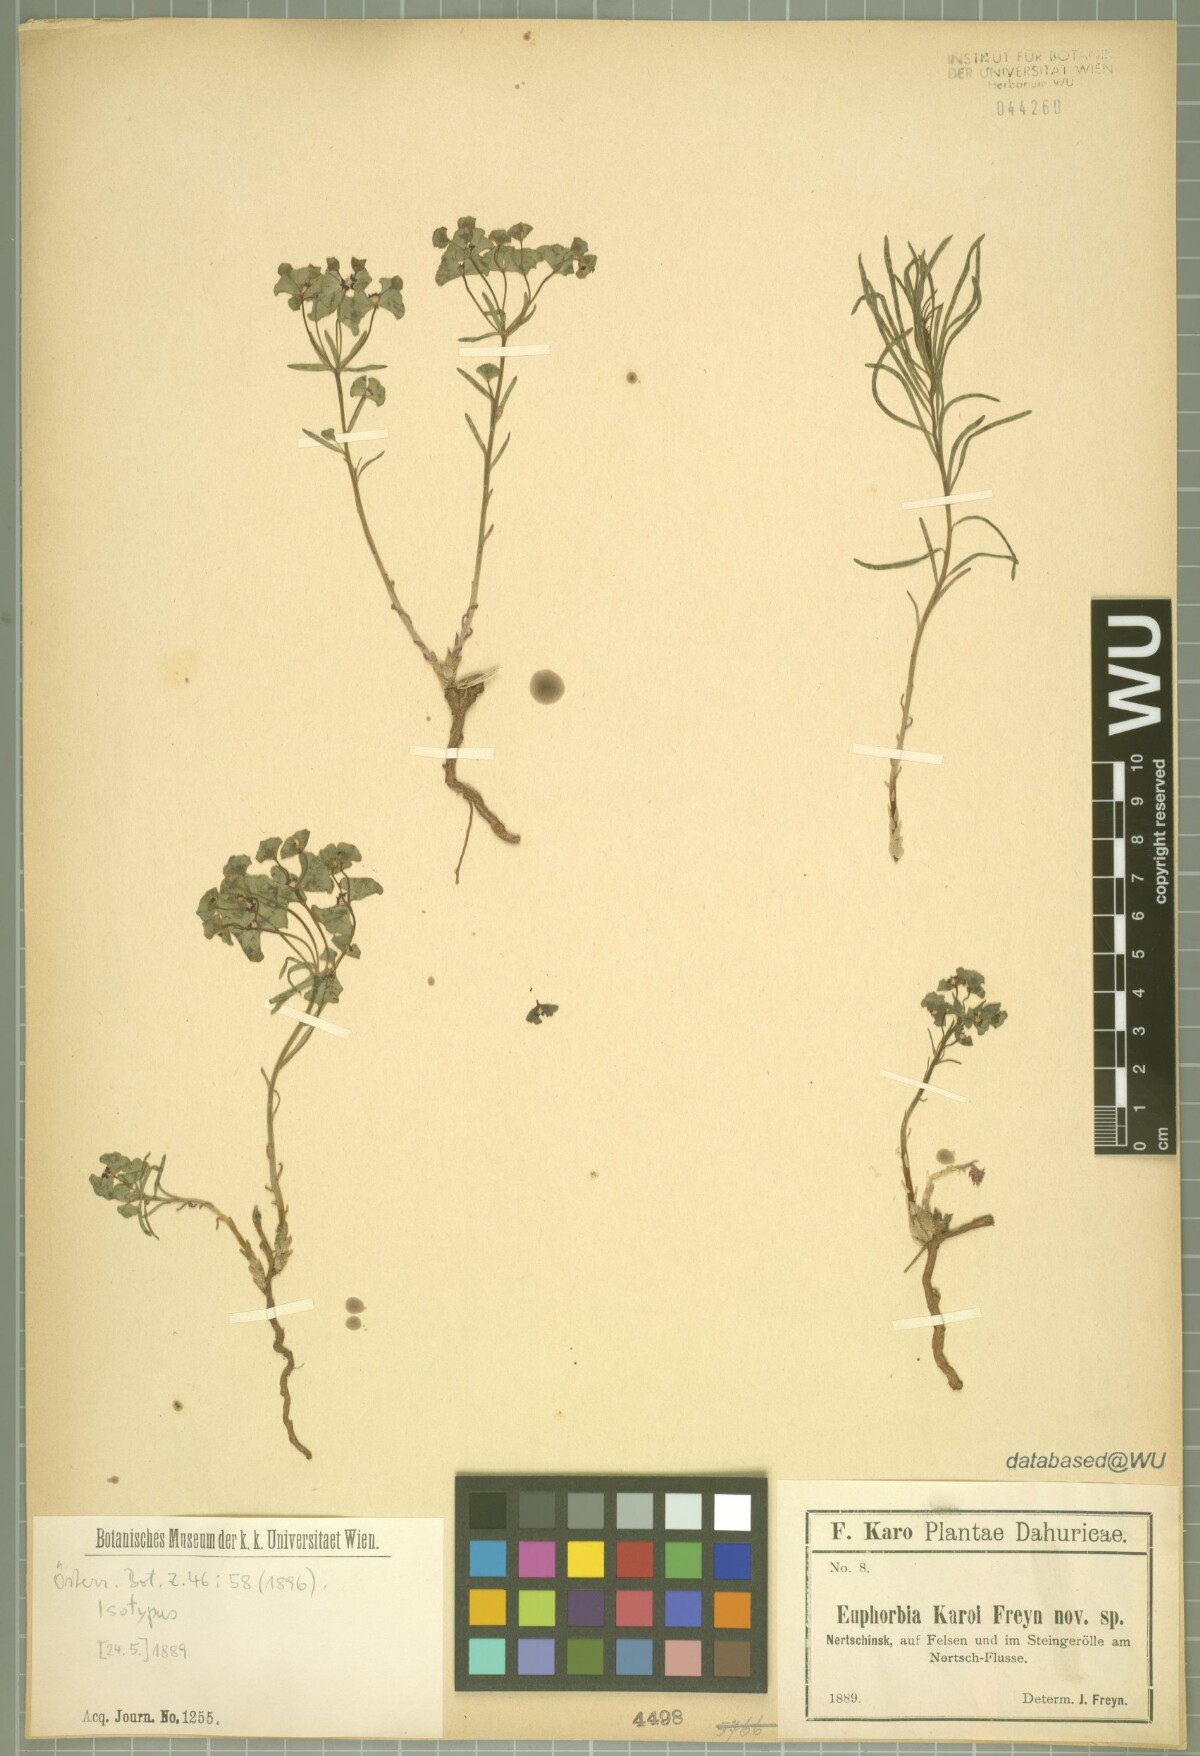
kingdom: Plantae
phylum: Tracheophyta
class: Magnoliopsida
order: Malpighiales
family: Euphorbiaceae
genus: Euphorbia
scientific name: Euphorbia esula
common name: Leafy spurge
